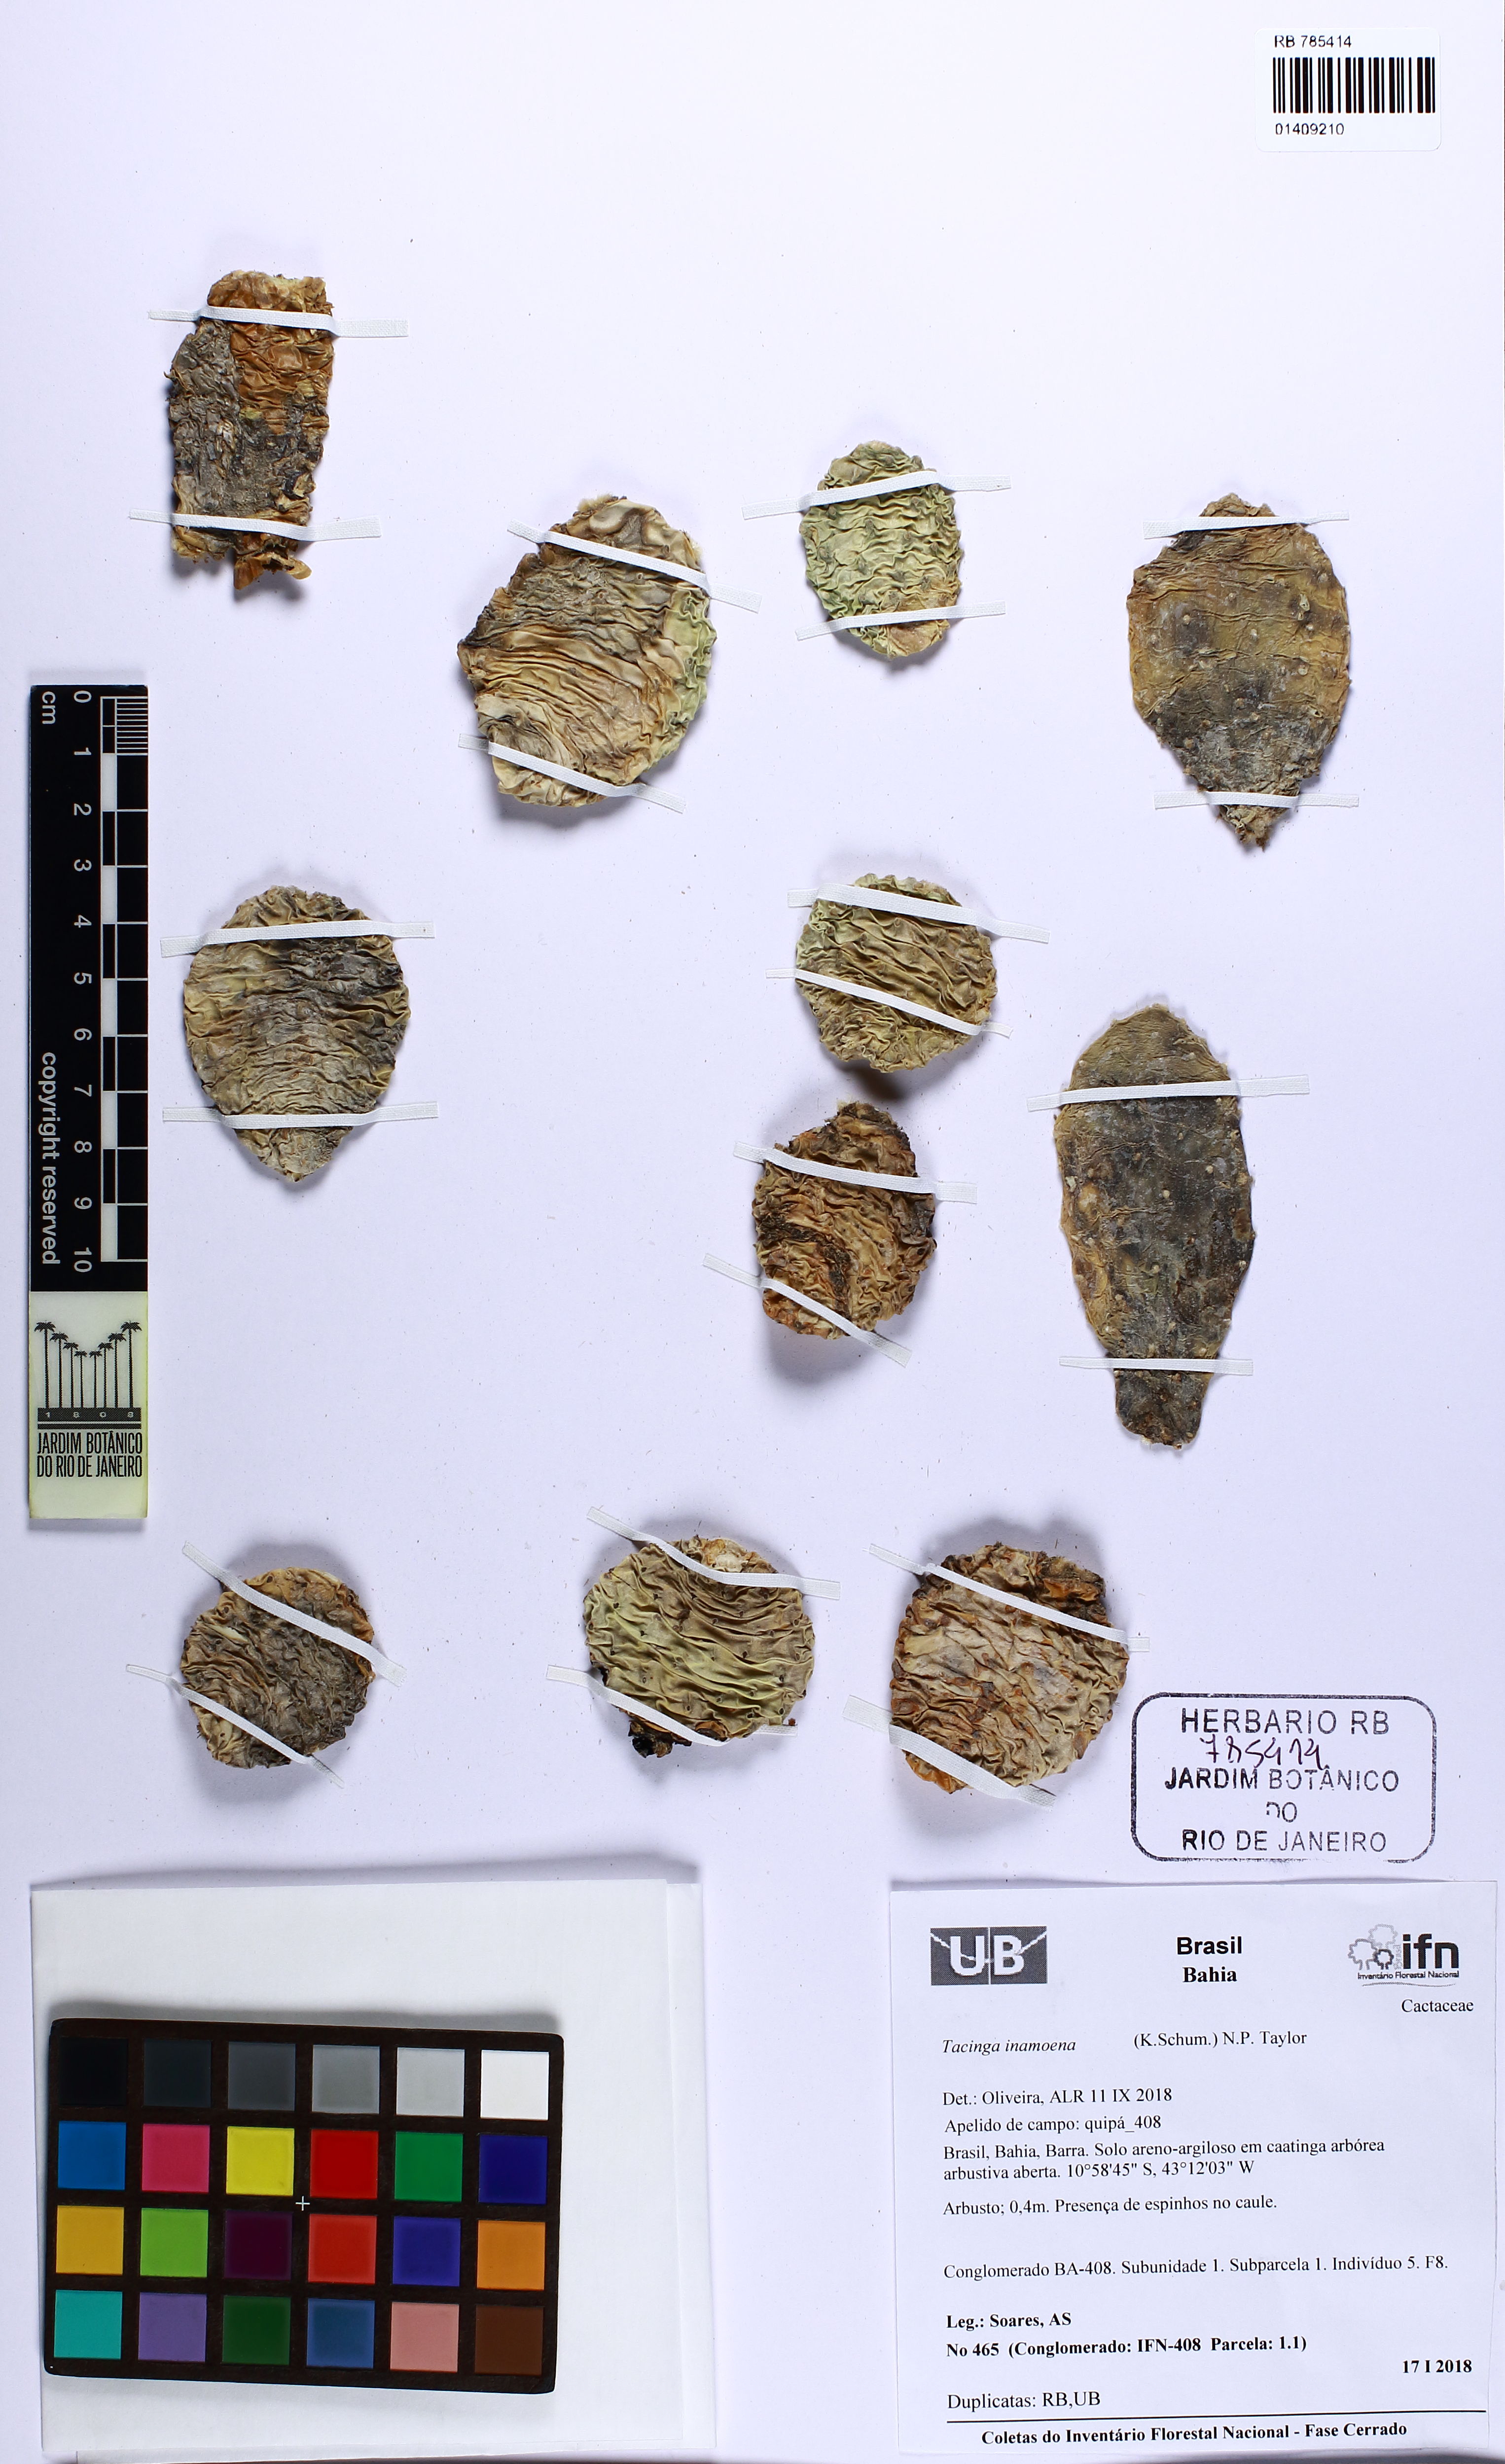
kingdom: Plantae
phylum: Tracheophyta
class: Magnoliopsida
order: Caryophyllales
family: Cactaceae
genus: Tacinga
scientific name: Tacinga inamoena
